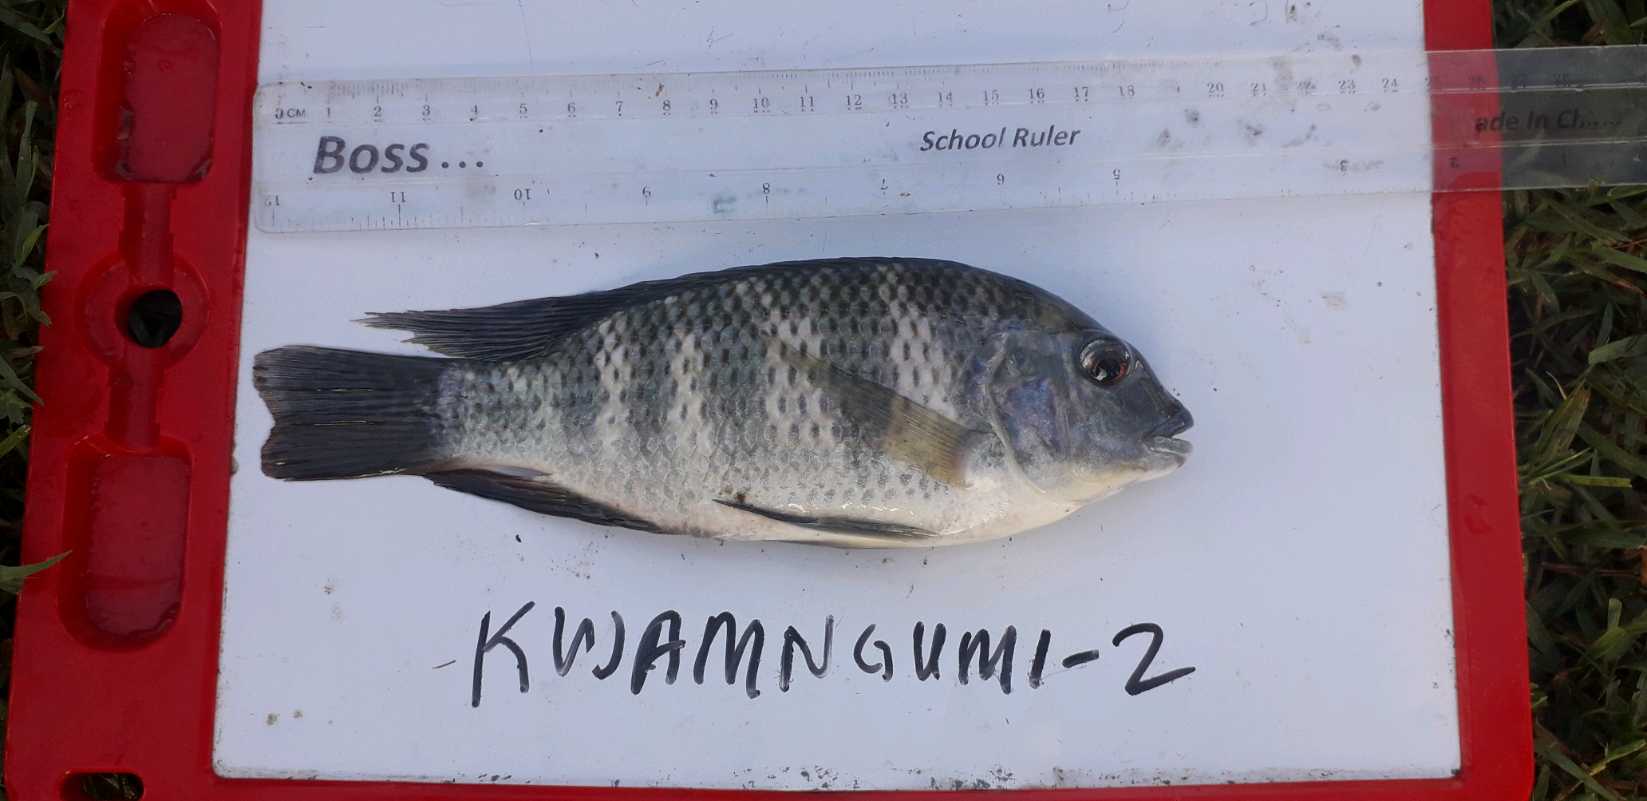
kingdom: Animalia
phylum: Chordata
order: Perciformes
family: Cichlidae
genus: Coptodon
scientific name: Coptodon rendalli
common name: Redbreast tilapia
